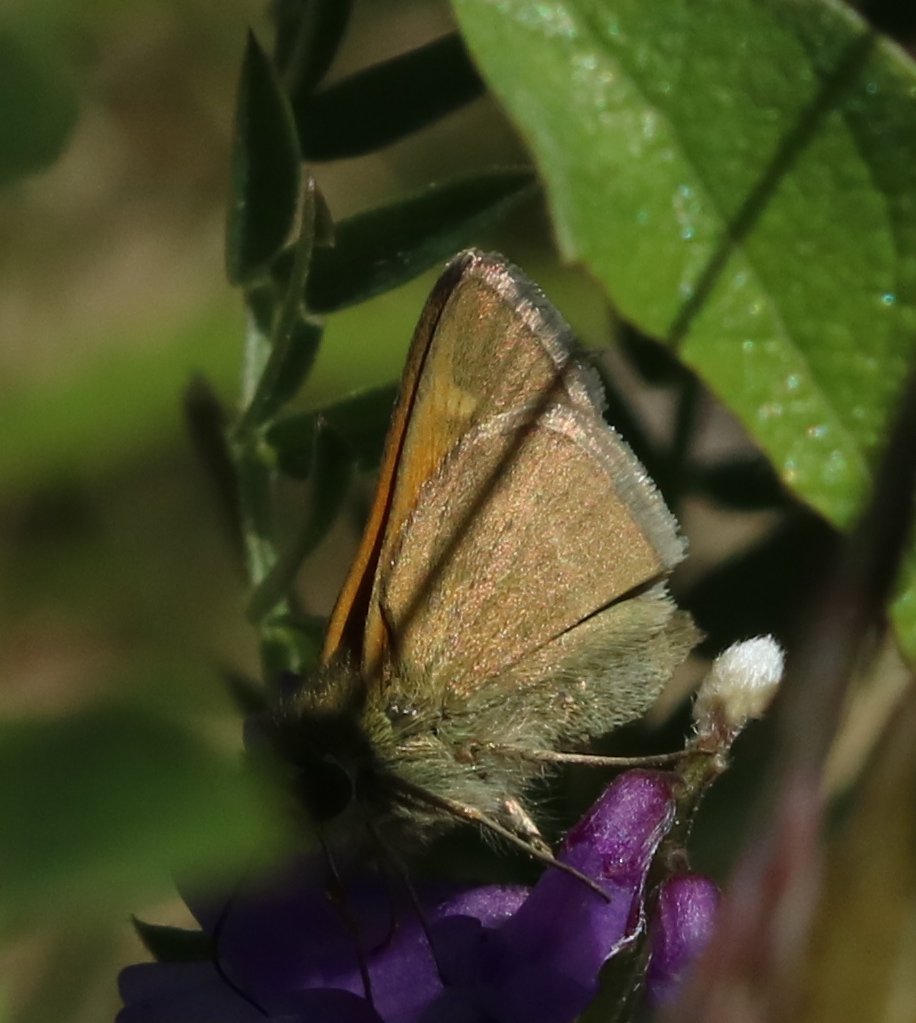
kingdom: Animalia
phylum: Arthropoda
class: Insecta
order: Lepidoptera
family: Hesperiidae
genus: Polites
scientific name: Polites themistocles
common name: Tawny-edged Skipper
